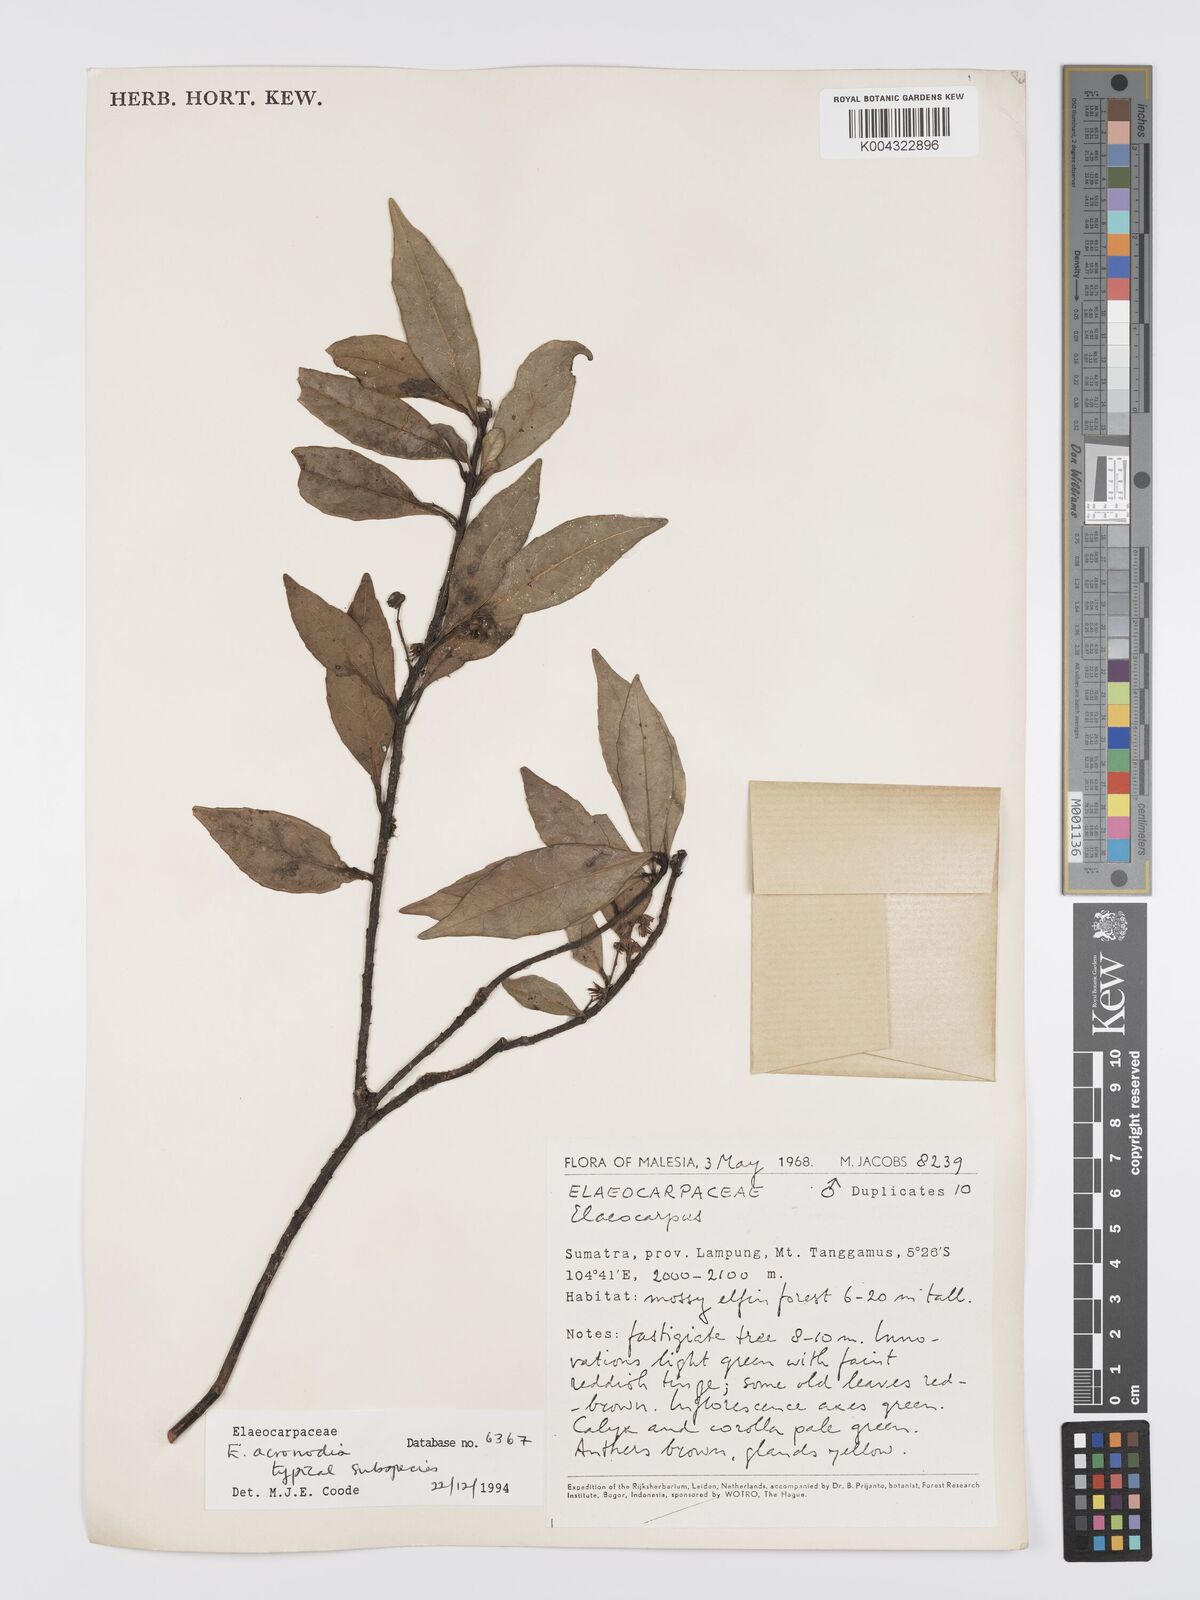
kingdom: Plantae
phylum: Tracheophyta
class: Magnoliopsida
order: Oxalidales
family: Elaeocarpaceae
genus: Elaeocarpus
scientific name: Elaeocarpus acronodia
